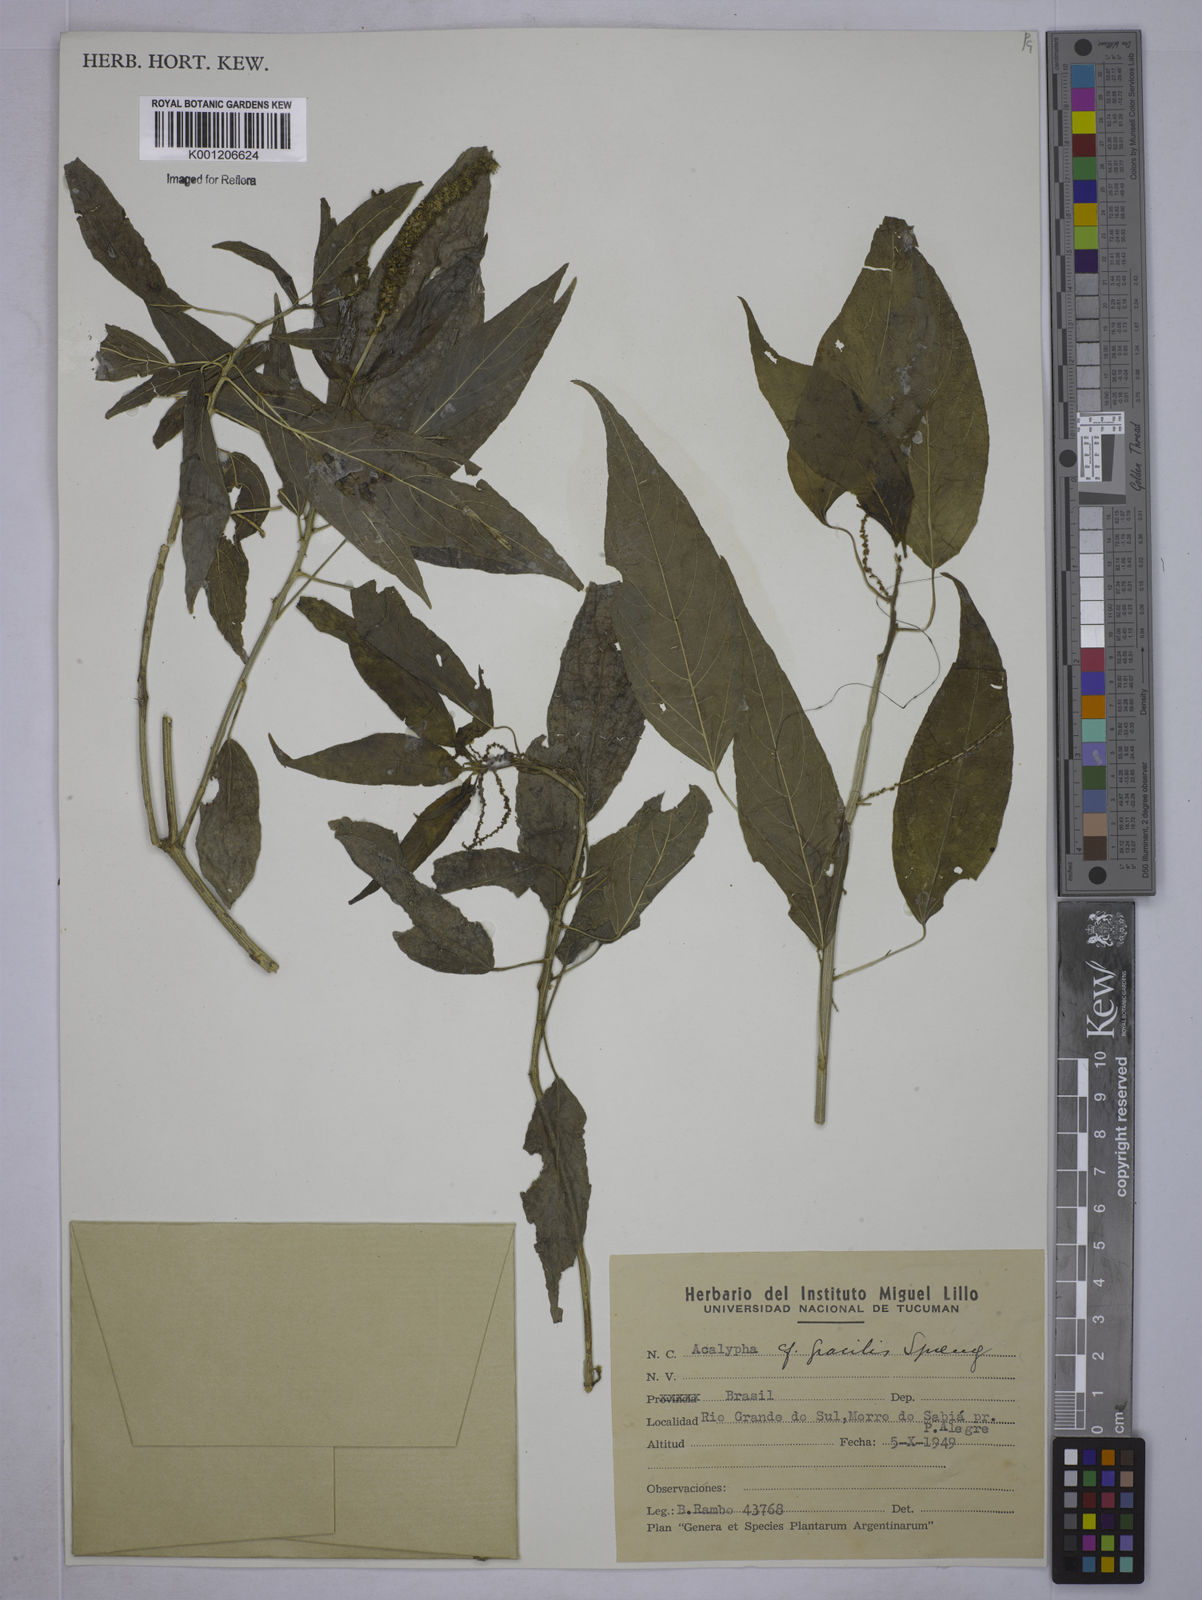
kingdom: Plantae
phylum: Tracheophyta
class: Magnoliopsida
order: Malpighiales
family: Euphorbiaceae
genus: Acalypha
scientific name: Acalypha gracilis
